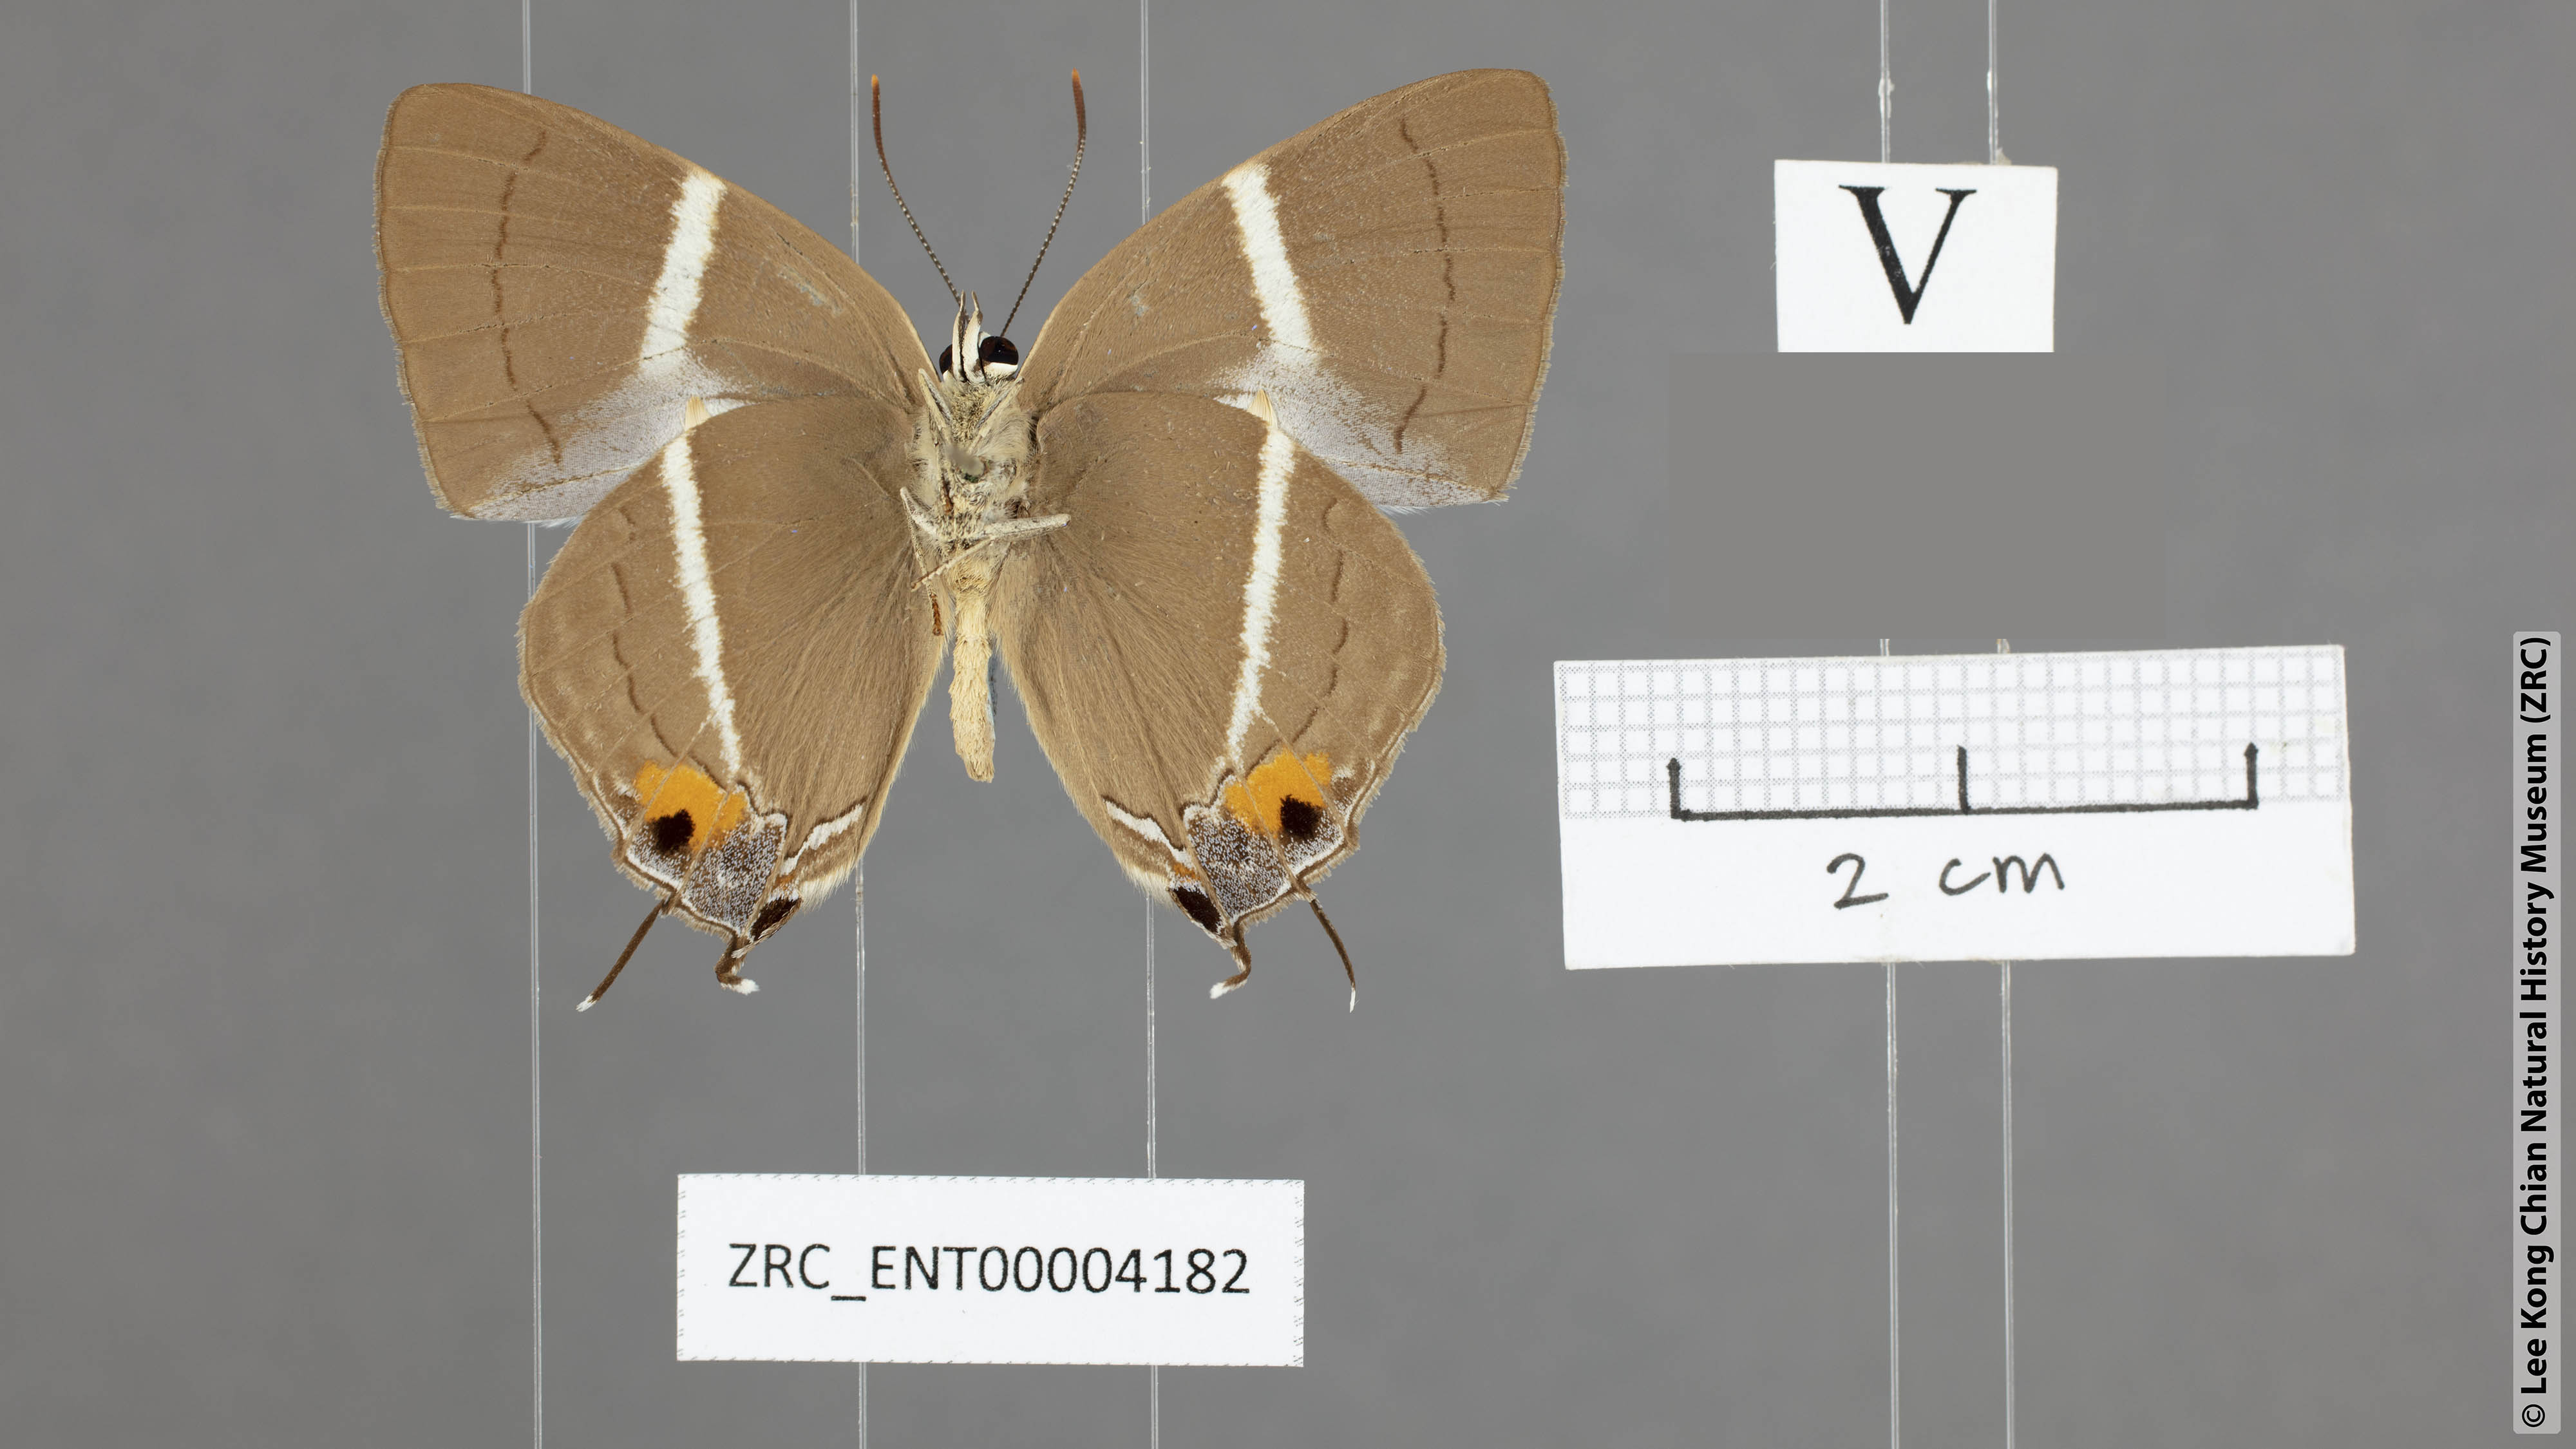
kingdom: Animalia
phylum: Arthropoda
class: Insecta
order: Lepidoptera
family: Lycaenidae
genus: Dacalana
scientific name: Dacalana sinhara
